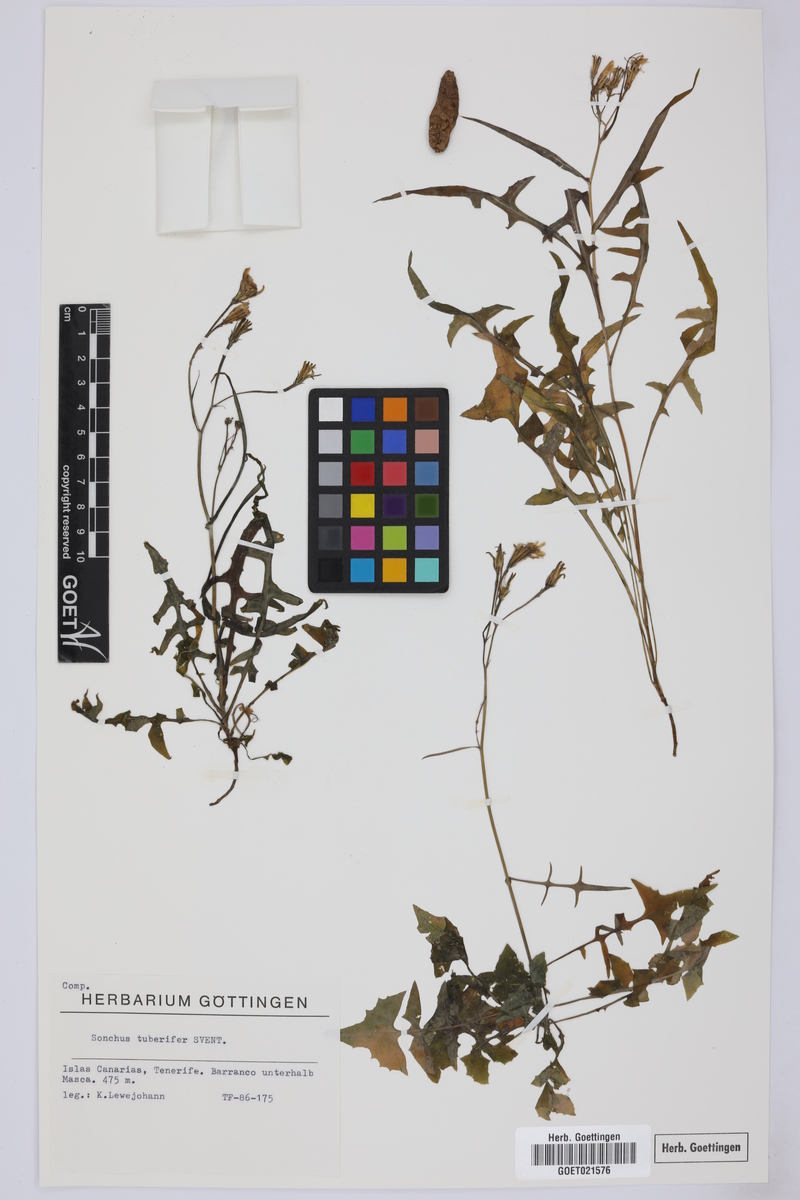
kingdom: Plantae
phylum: Tracheophyta
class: Magnoliopsida
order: Asterales
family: Asteraceae
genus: Sonchus
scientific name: Sonchus tuberifer
